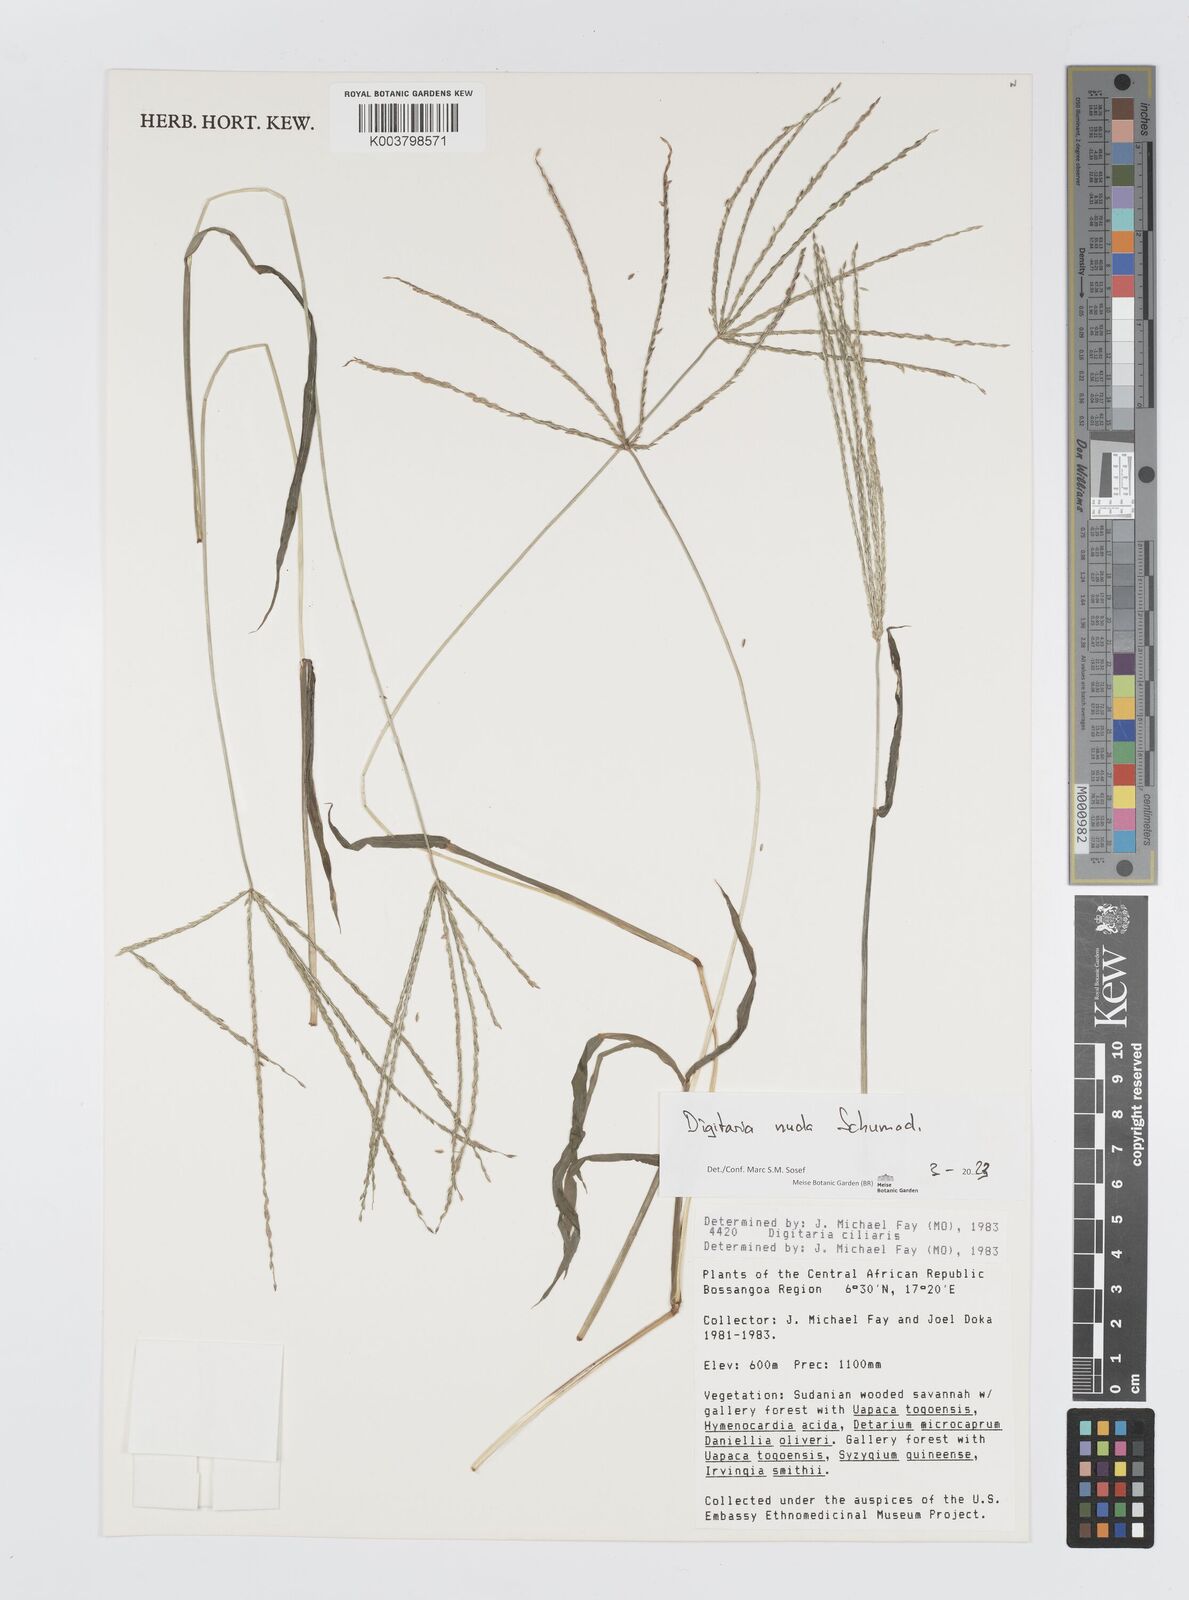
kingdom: Plantae
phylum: Tracheophyta
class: Liliopsida
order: Poales
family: Poaceae
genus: Digitaria
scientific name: Digitaria nuda
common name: Naked crabgrass
